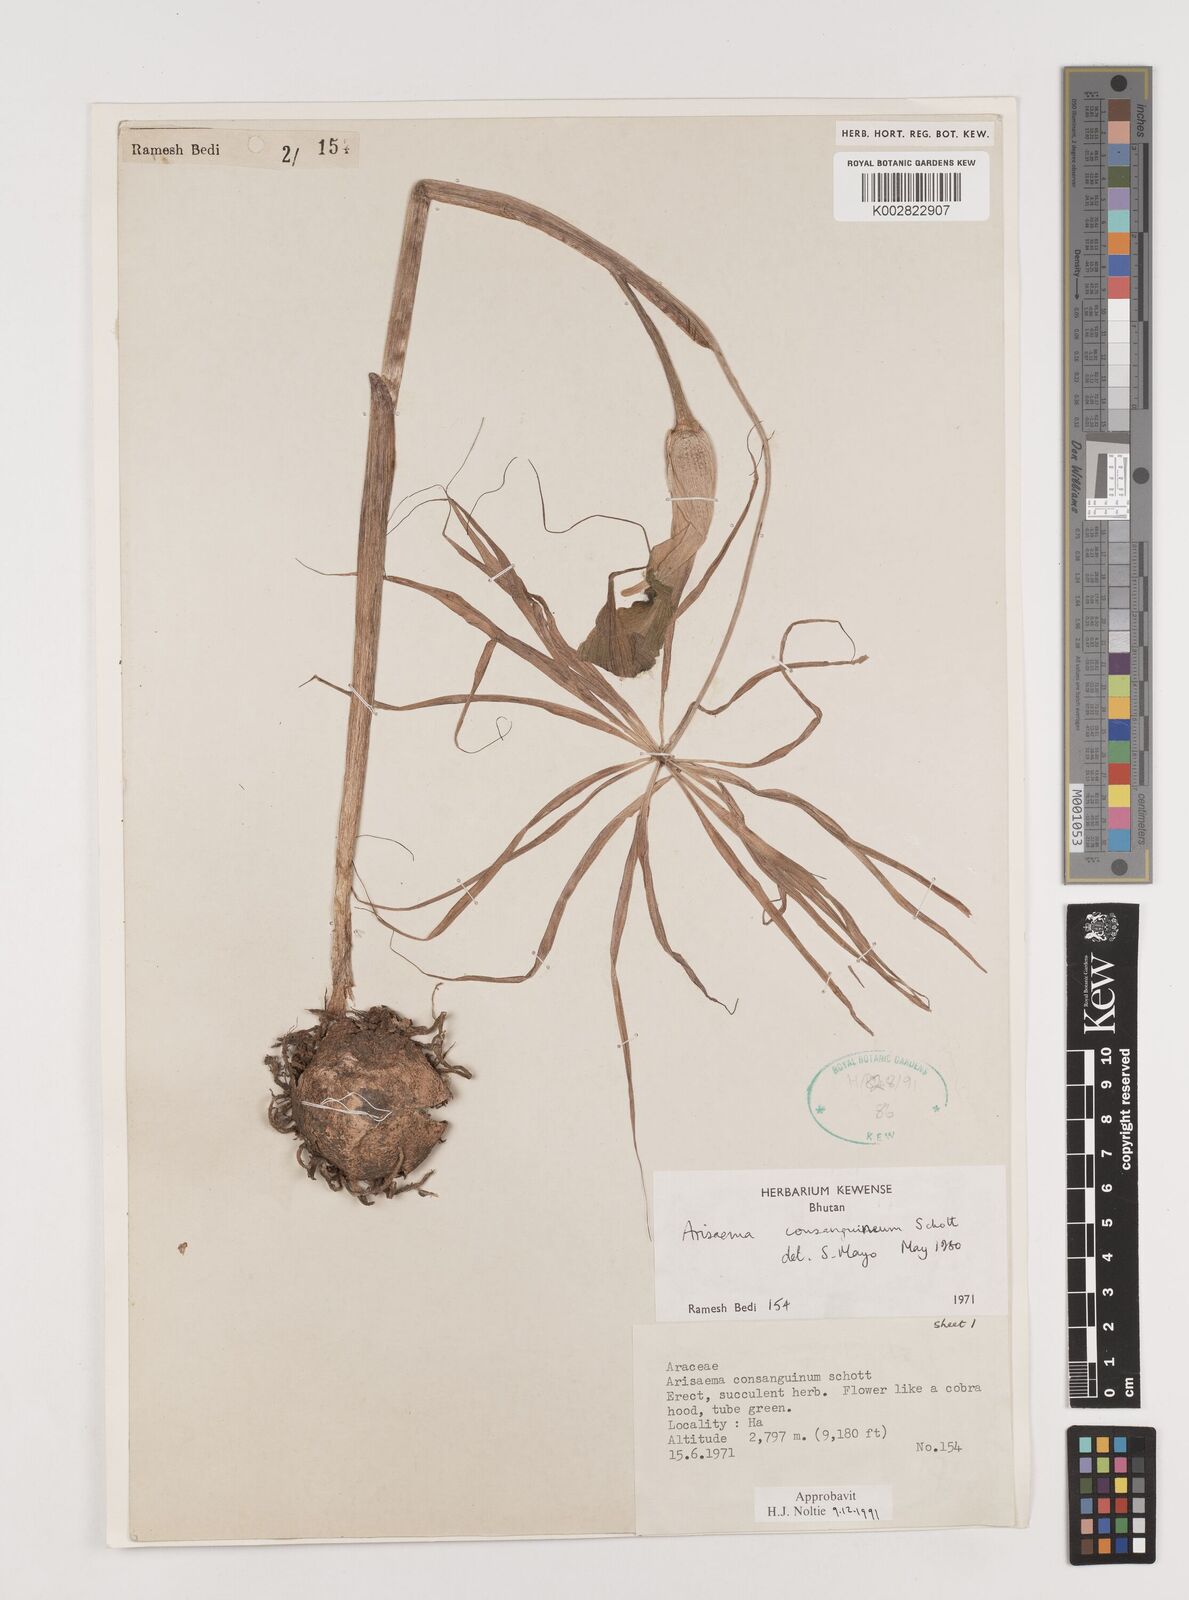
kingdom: Plantae
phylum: Tracheophyta
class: Liliopsida
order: Alismatales
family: Araceae
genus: Arisaema
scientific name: Arisaema erubescens
